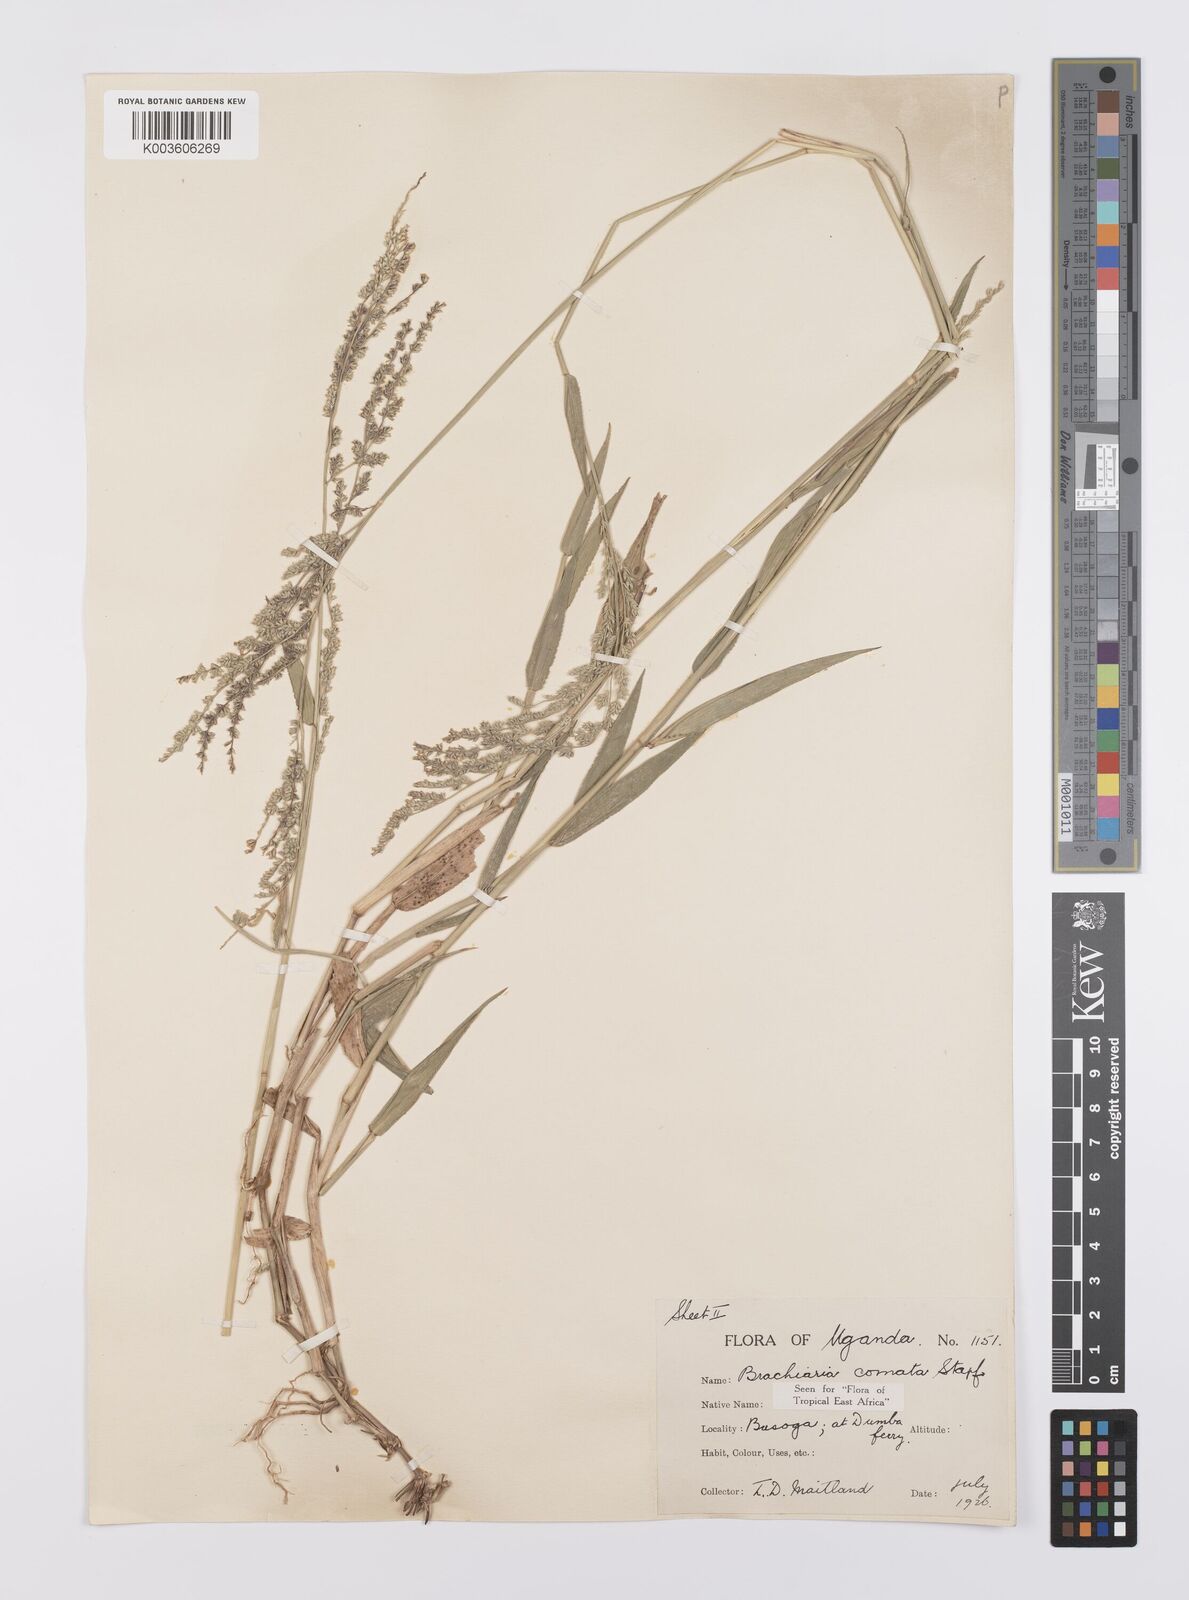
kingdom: Plantae
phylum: Tracheophyta
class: Liliopsida
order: Poales
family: Poaceae
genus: Urochloa
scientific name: Urochloa comata
